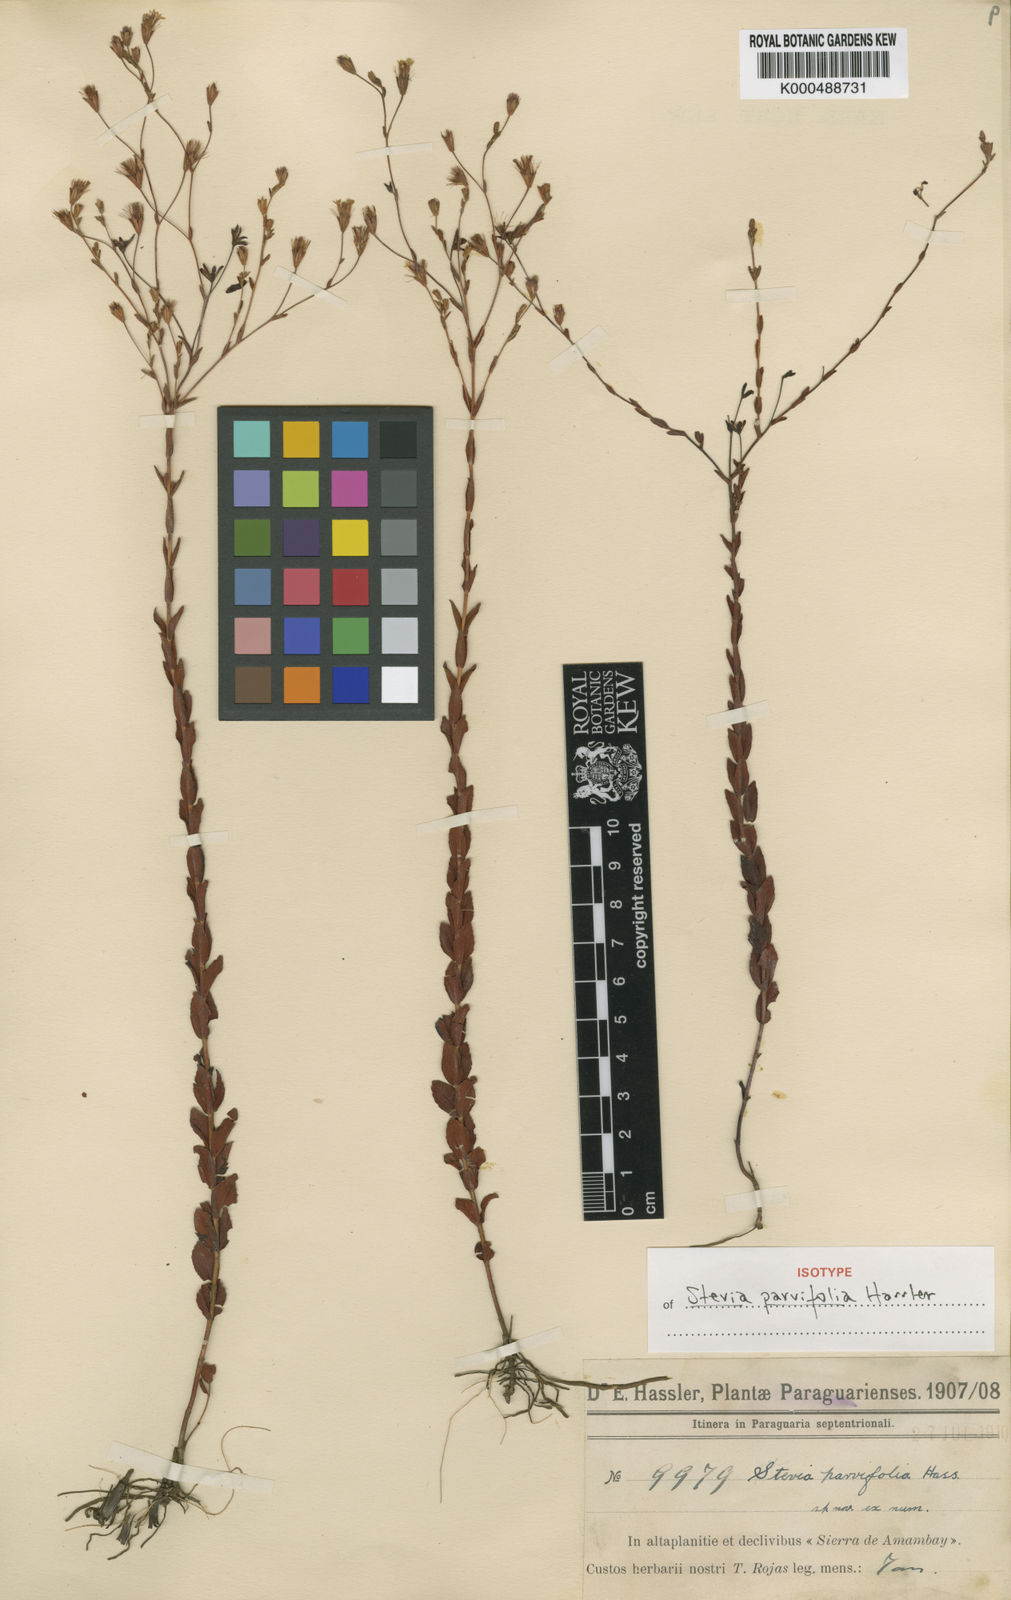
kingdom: Plantae
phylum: Tracheophyta
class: Magnoliopsida
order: Asterales
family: Asteraceae
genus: Stevia
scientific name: Stevia parvifolia
